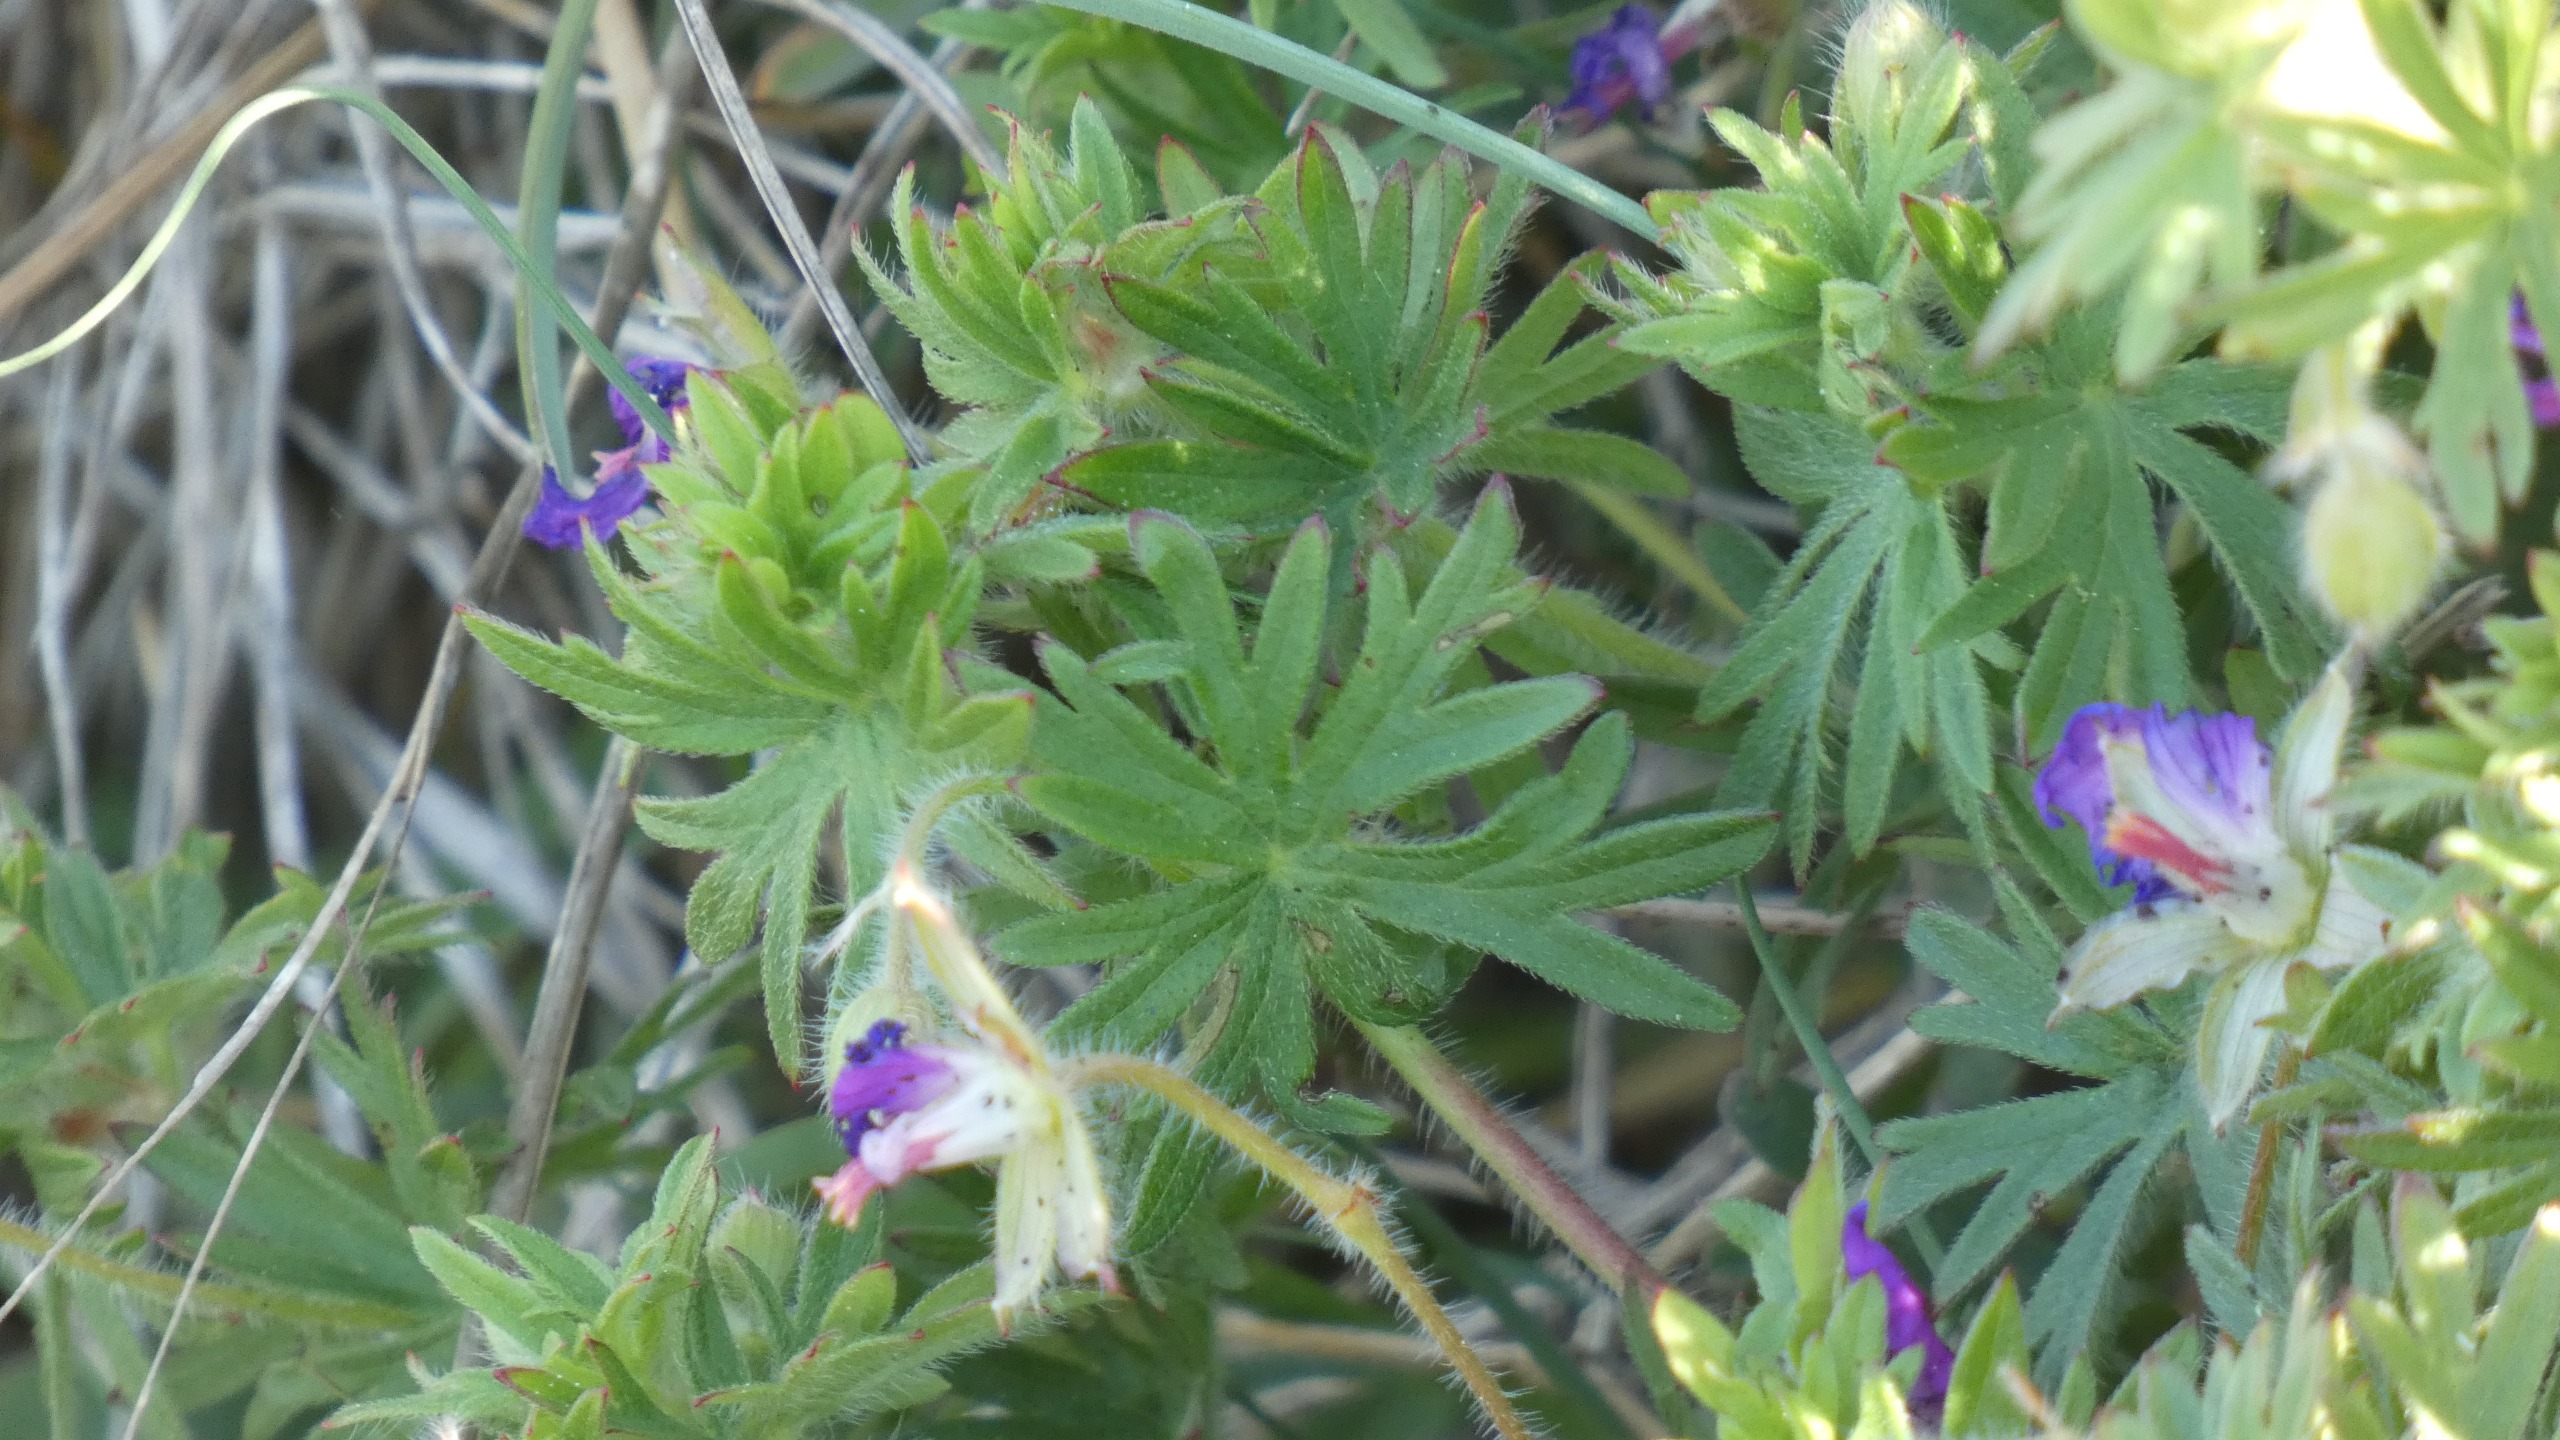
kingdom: Plantae
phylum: Tracheophyta
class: Magnoliopsida
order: Geraniales
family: Geraniaceae
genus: Geranium
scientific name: Geranium sanguineum
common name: Blodrød storkenæb
